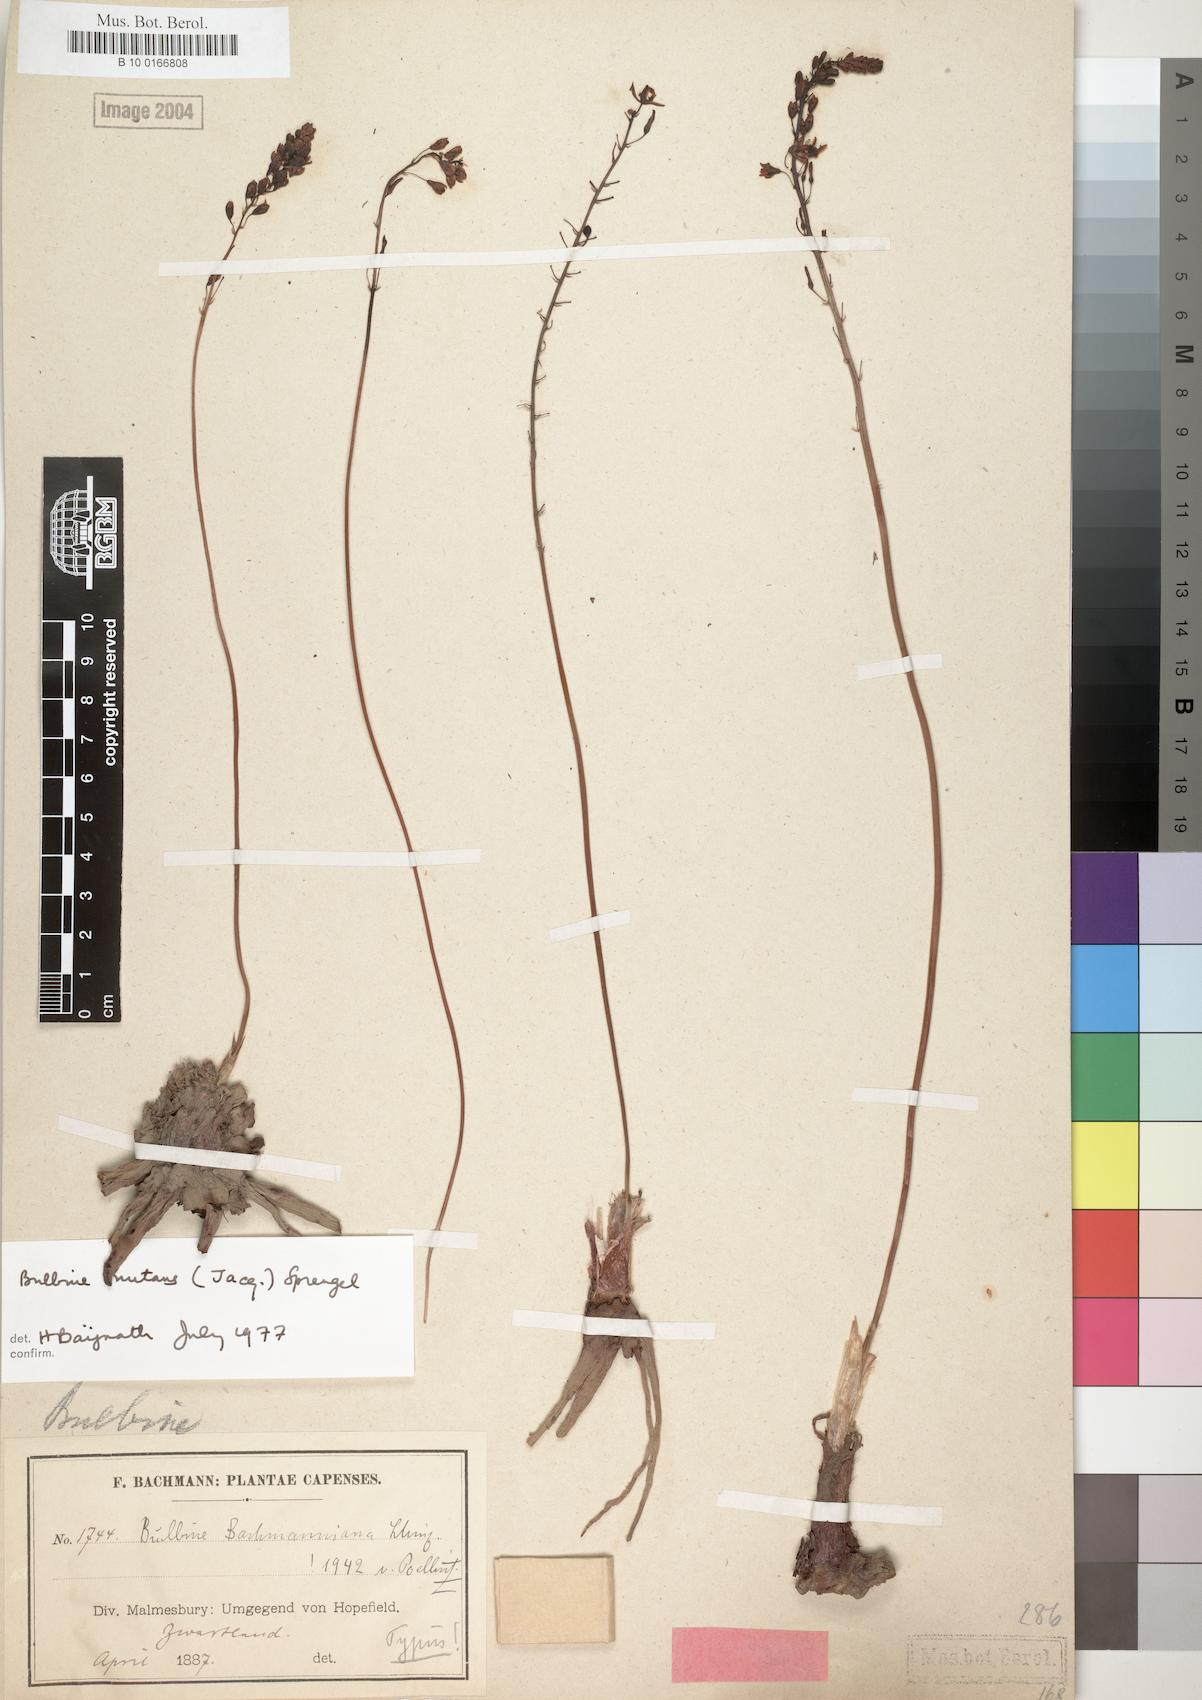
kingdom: Plantae
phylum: Tracheophyta
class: Liliopsida
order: Asparagales
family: Asphodelaceae
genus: Bulbinella
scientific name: Bulbinella nutans
